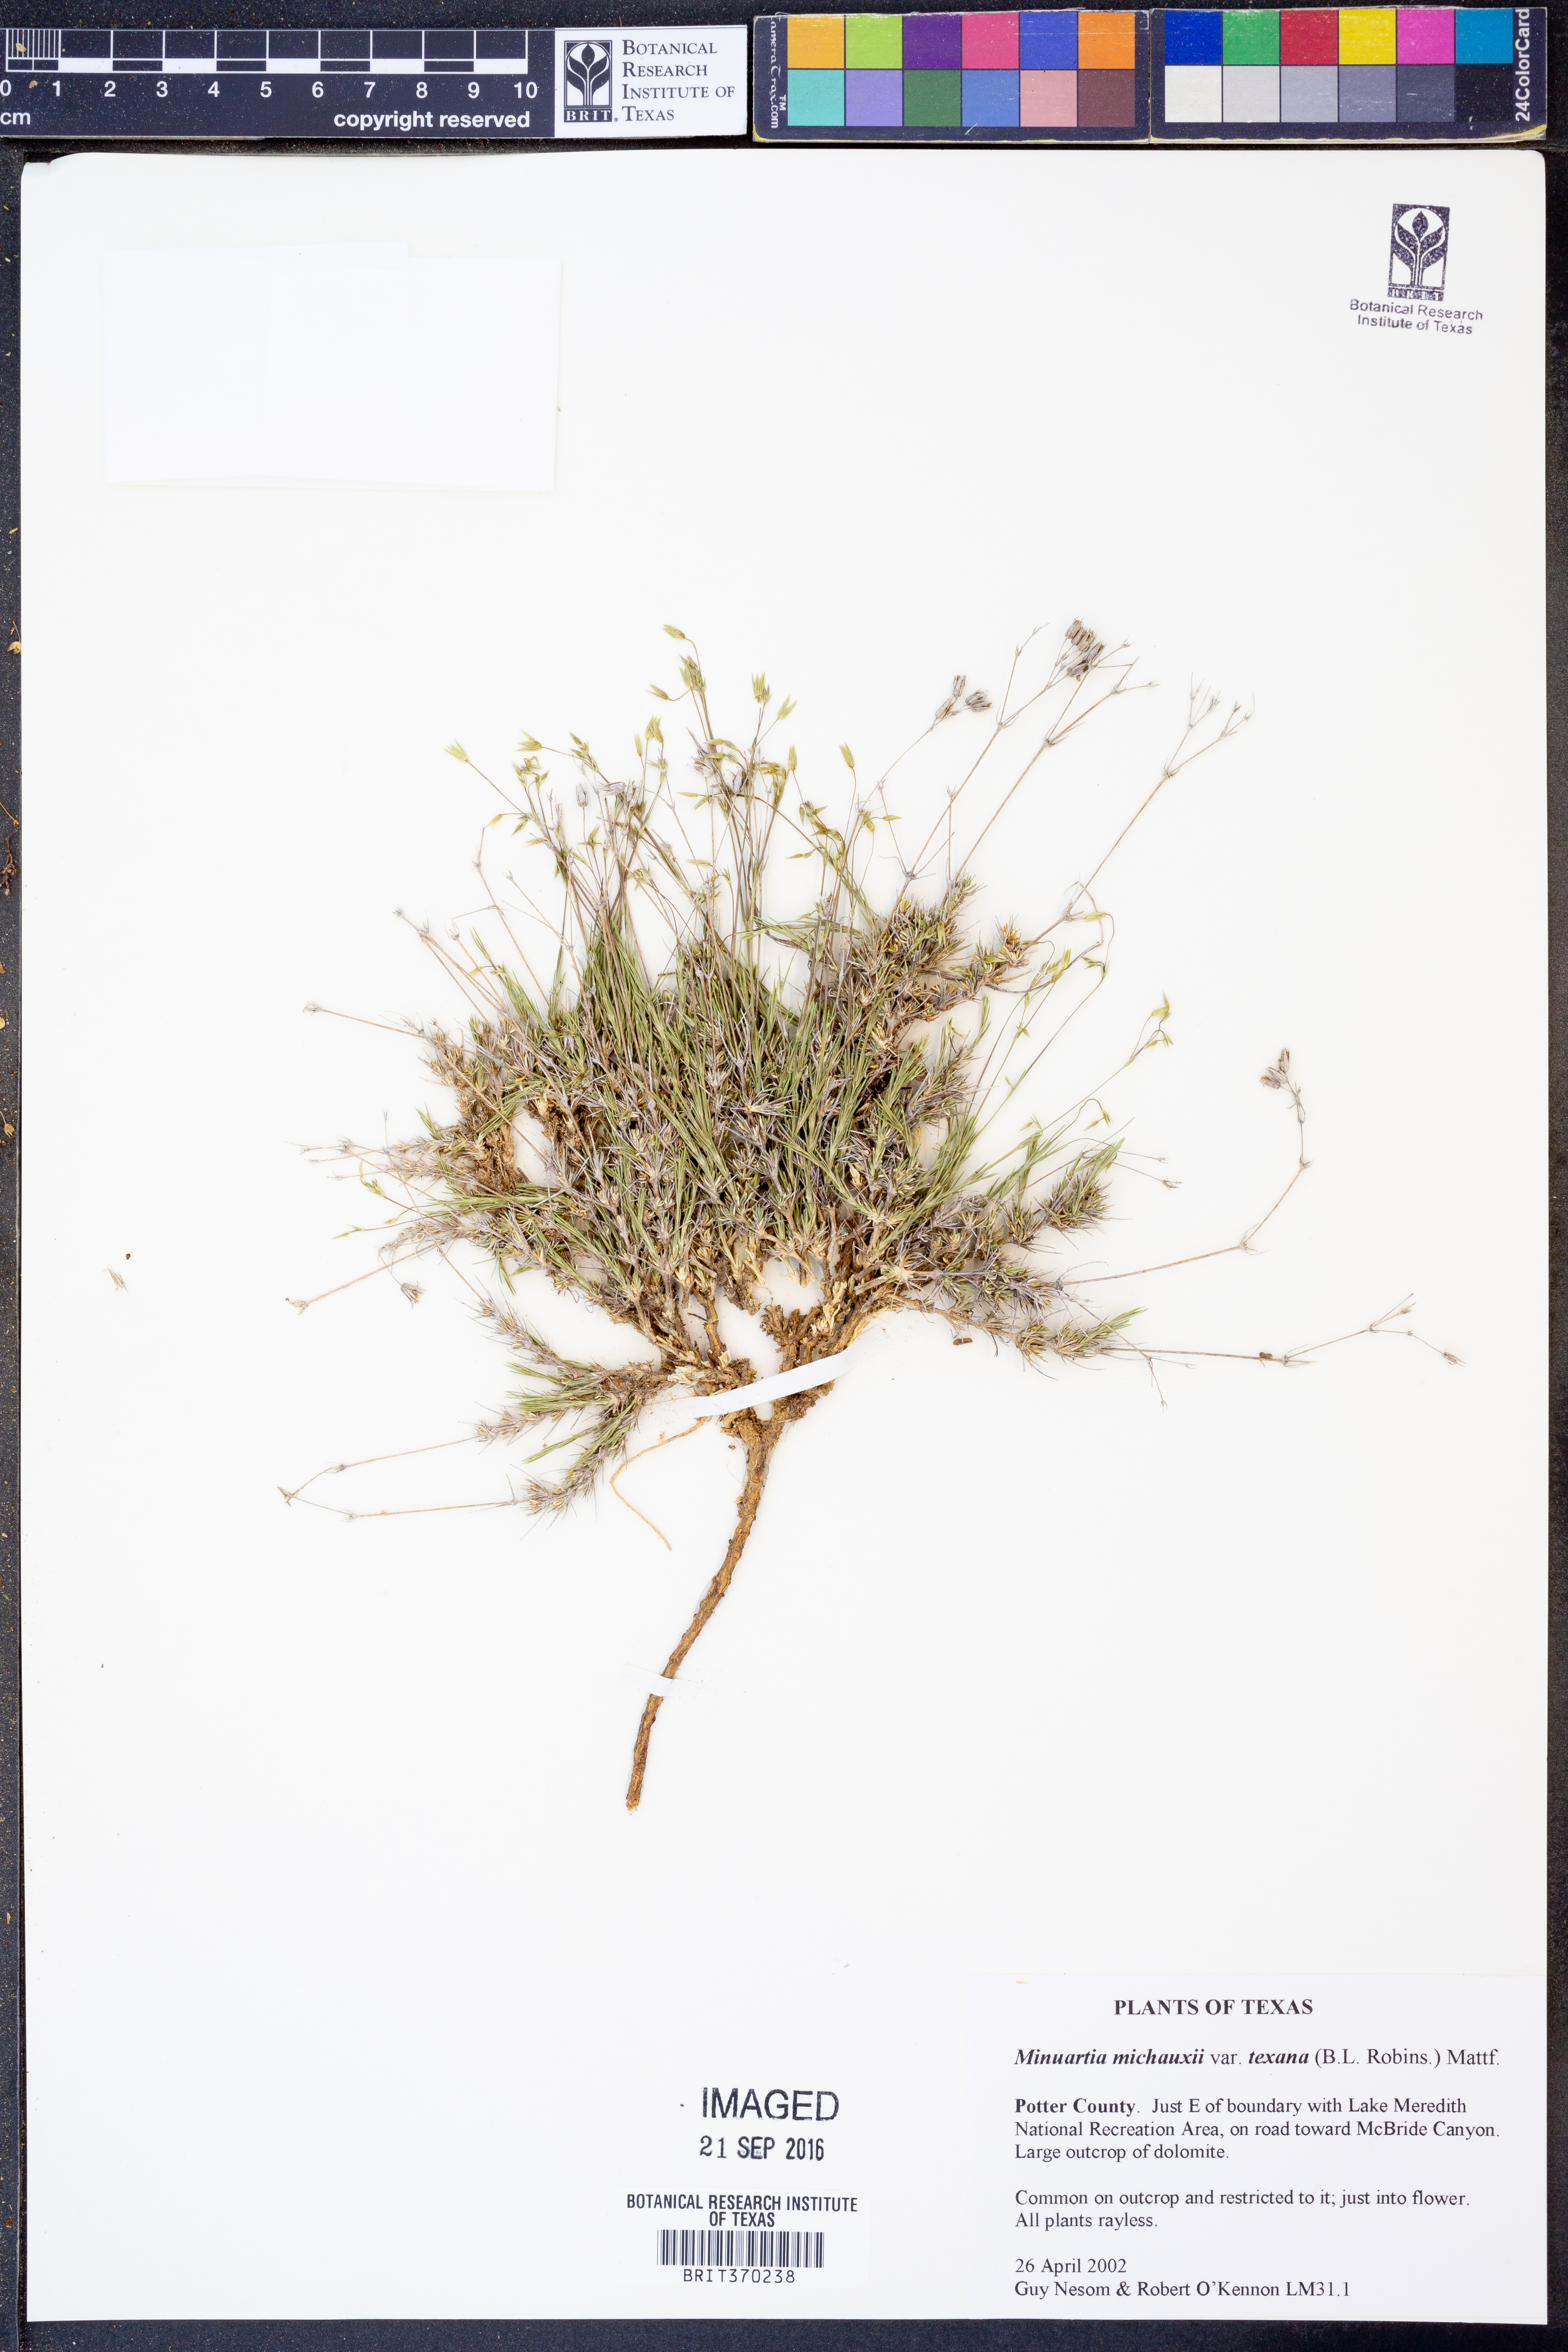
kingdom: Plantae
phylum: Tracheophyta
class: Magnoliopsida
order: Caryophyllales
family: Caryophyllaceae
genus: Sabulina
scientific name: Sabulina texana
